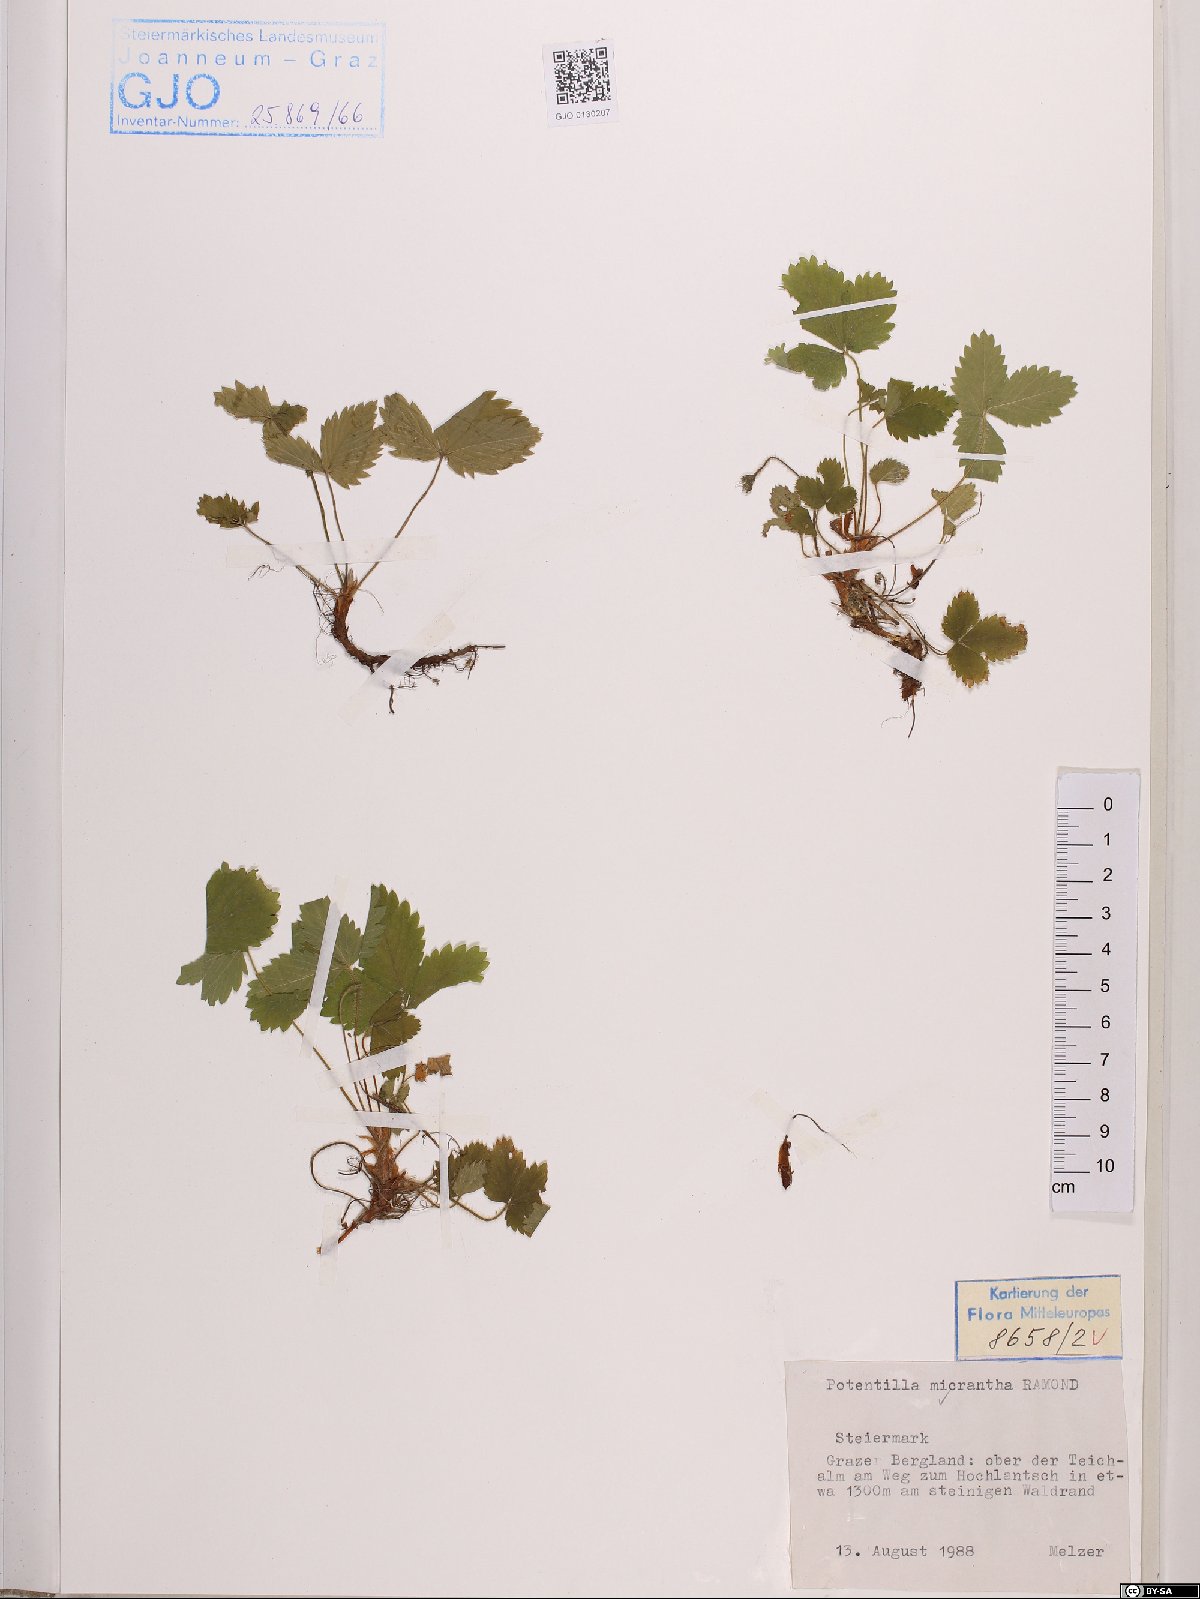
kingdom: Plantae
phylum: Tracheophyta
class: Magnoliopsida
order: Rosales
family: Rosaceae
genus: Potentilla
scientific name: Potentilla micrantha
